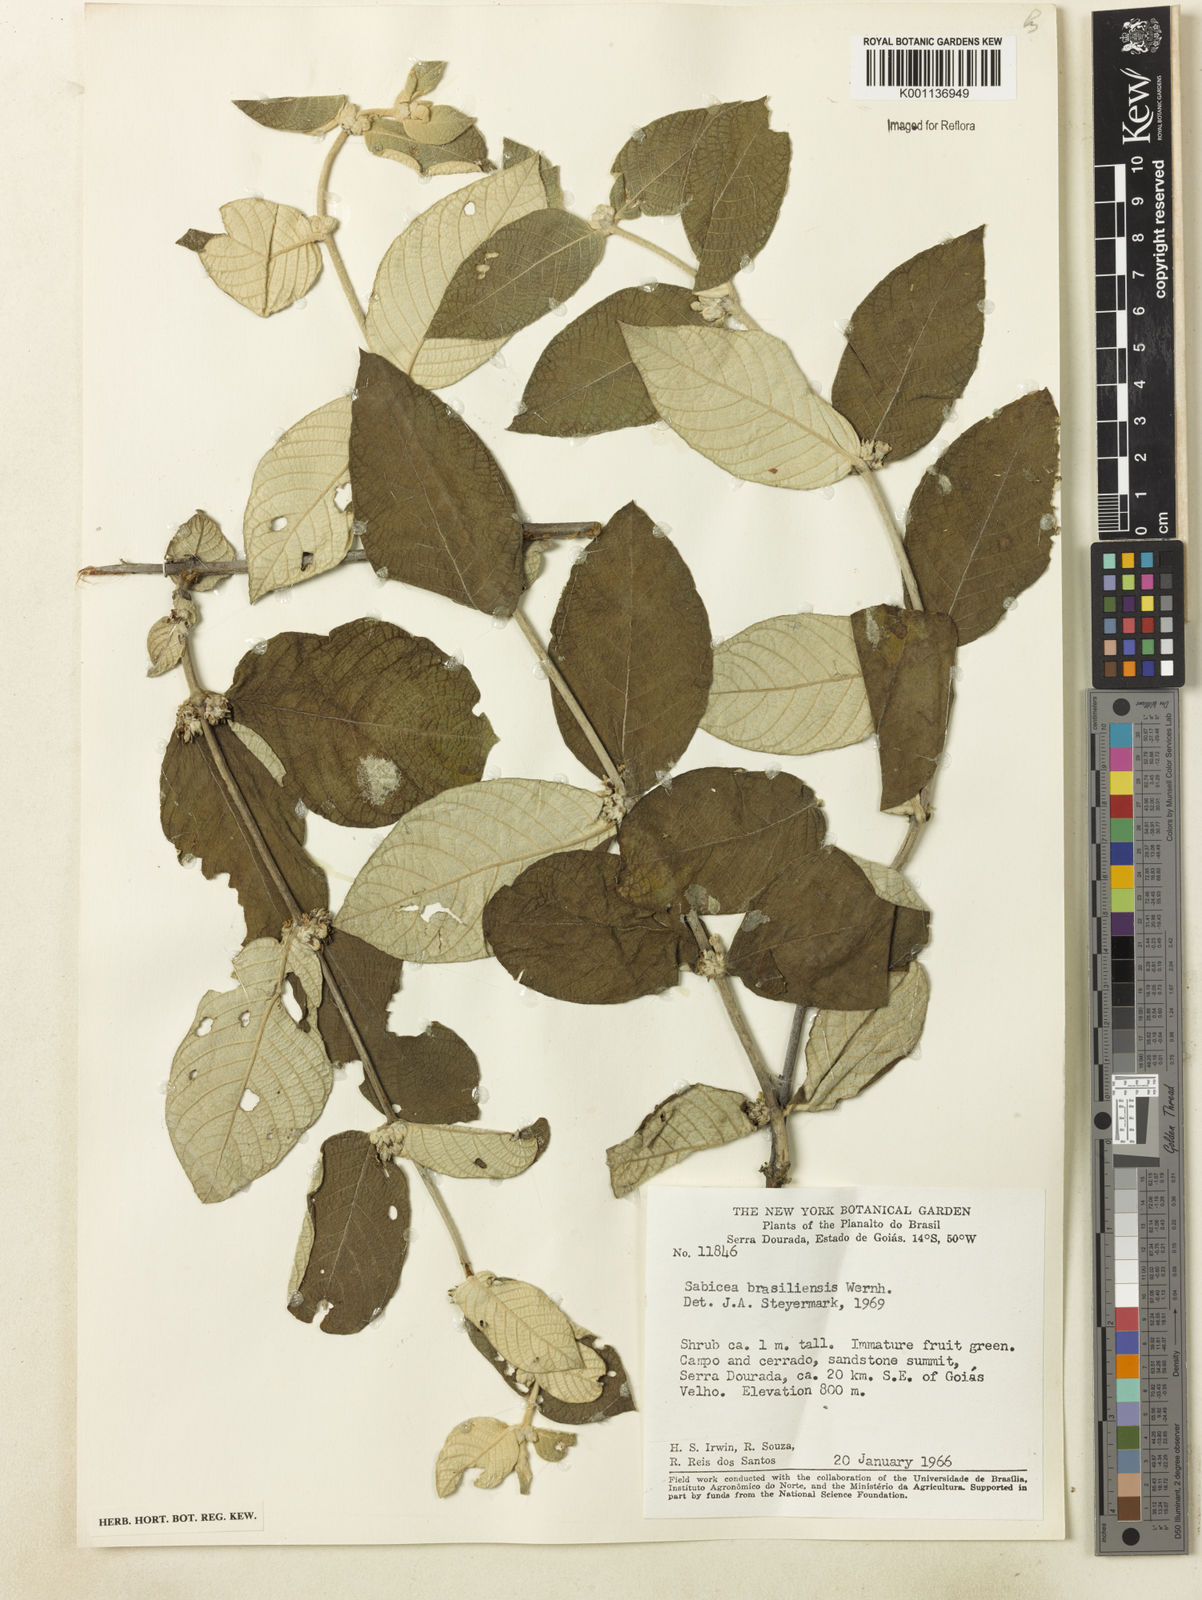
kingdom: Plantae
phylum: Tracheophyta
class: Magnoliopsida
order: Gentianales
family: Rubiaceae
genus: Sabicea
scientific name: Sabicea brasiliensis
